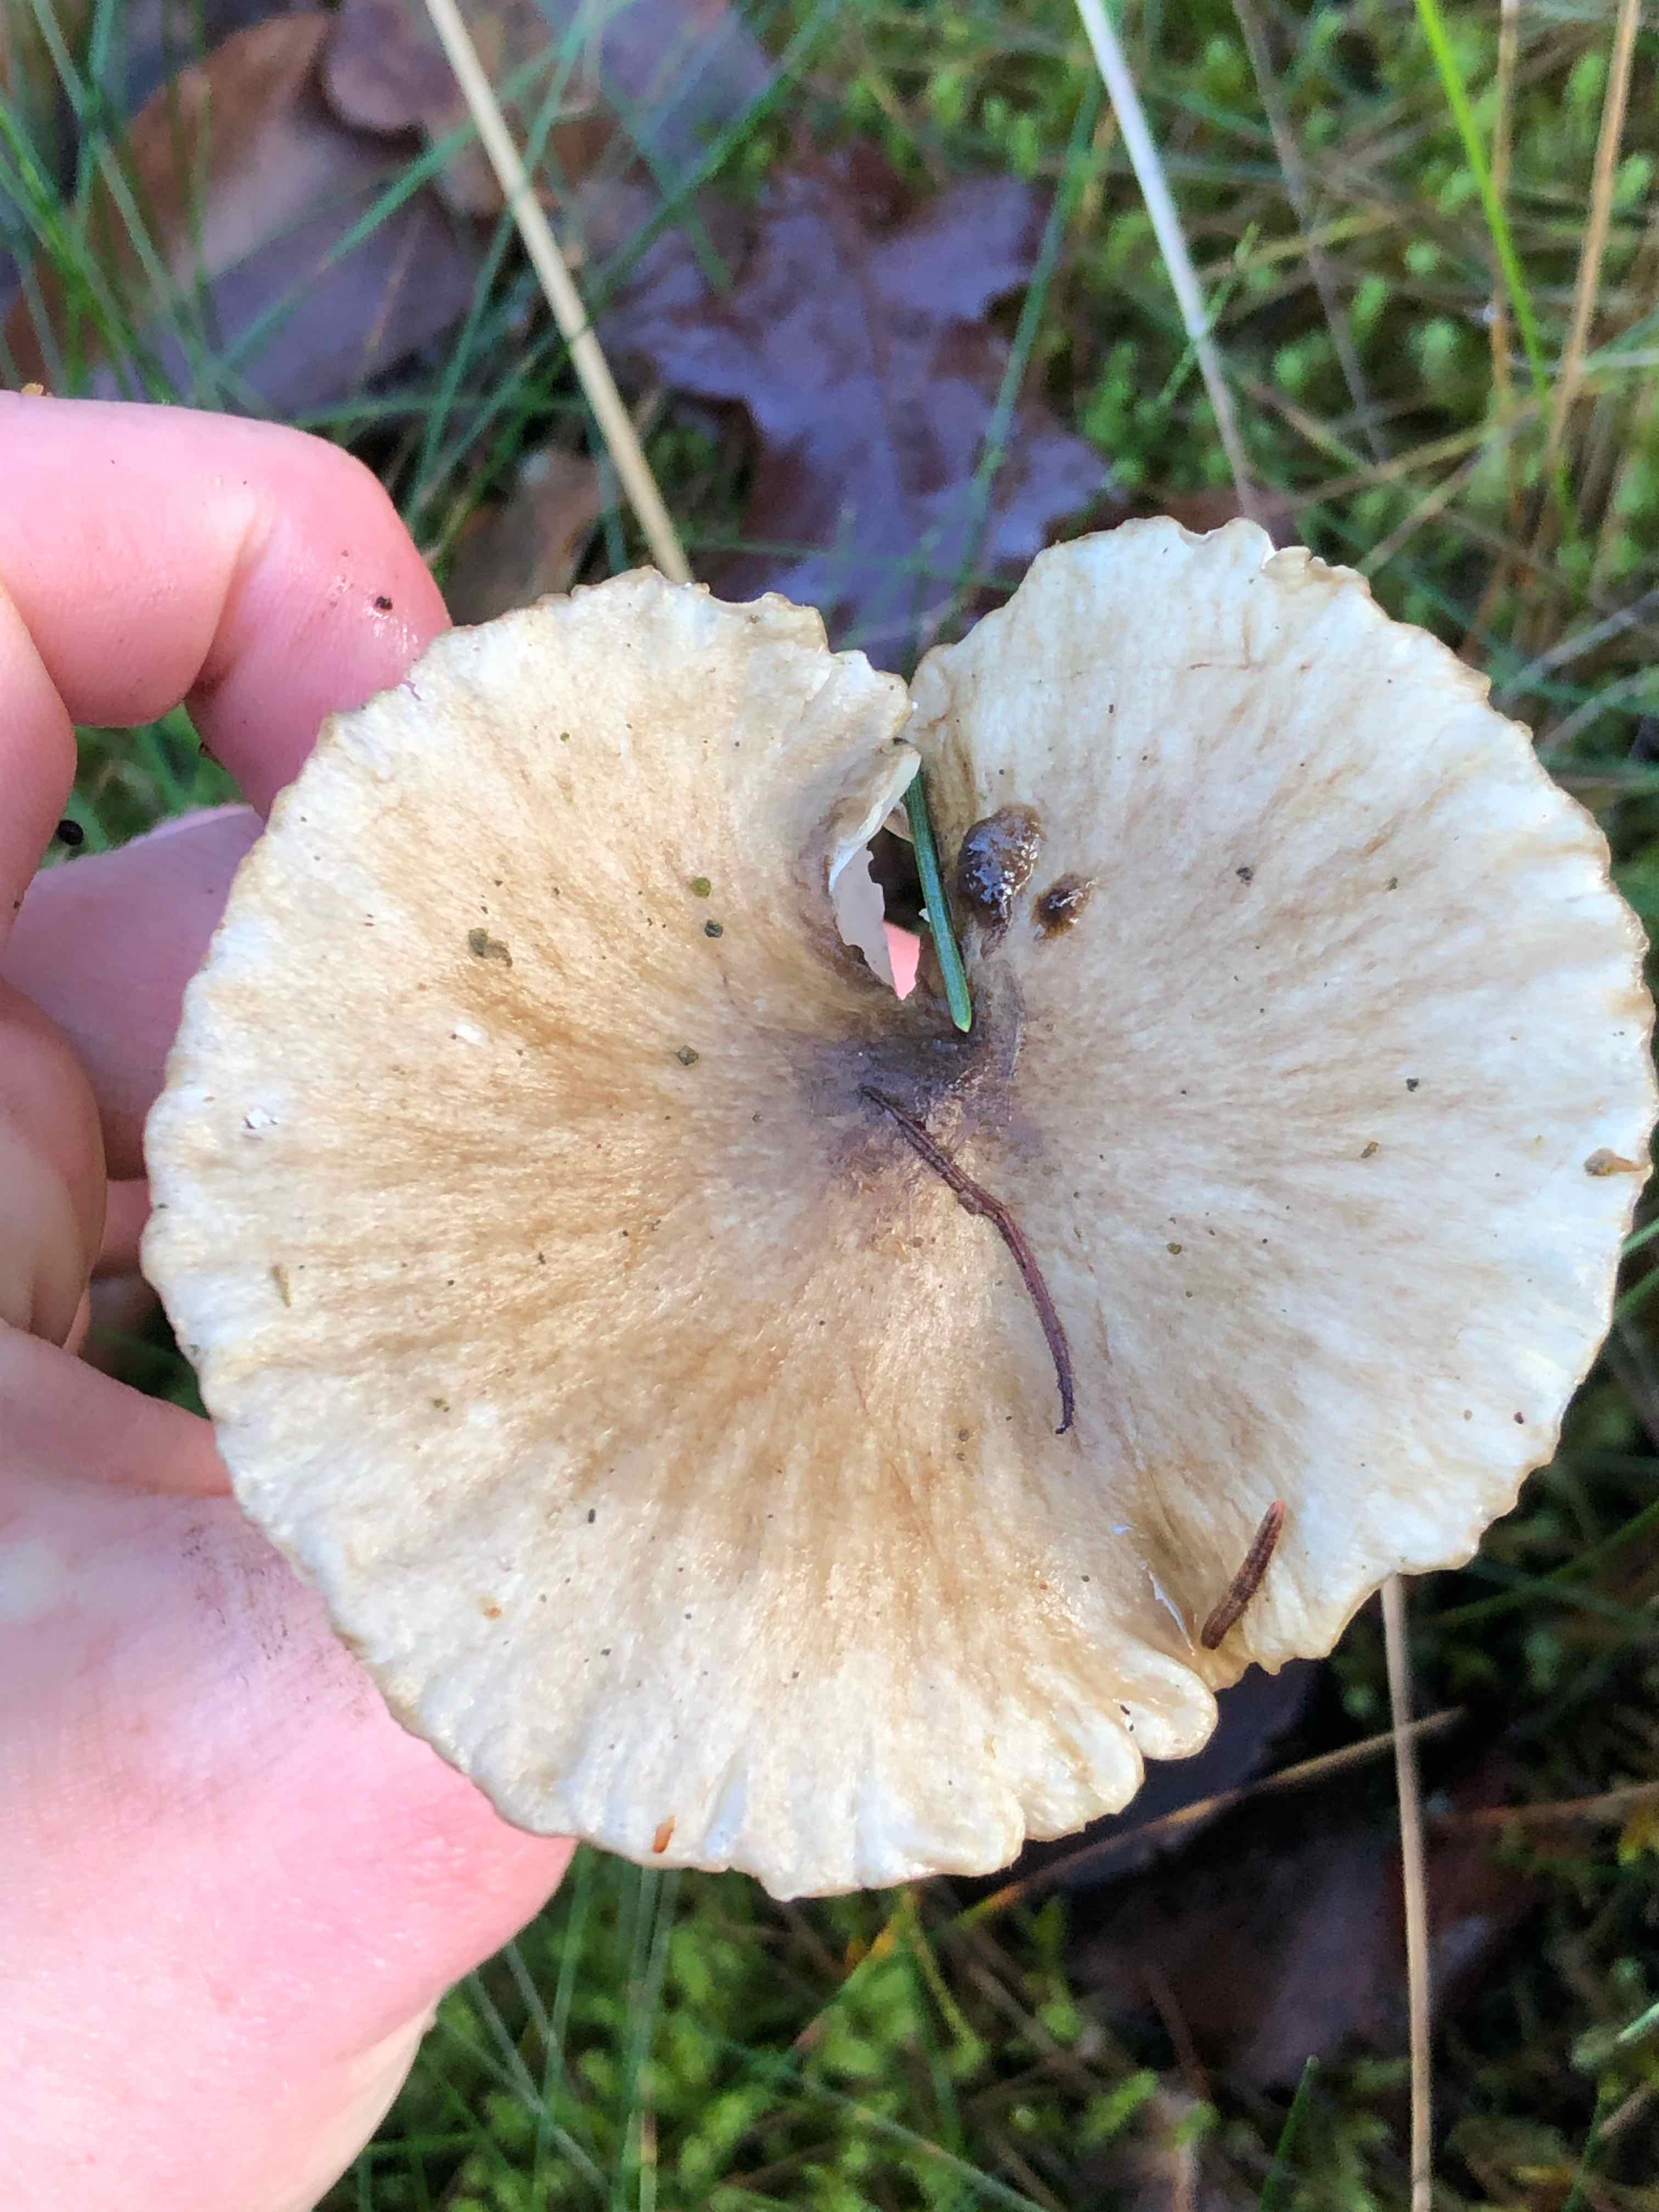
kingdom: Fungi
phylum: Basidiomycota
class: Agaricomycetes
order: Agaricales
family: Hygrophoraceae
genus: Hygrophorus
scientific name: Hygrophorus olivaceoalbus
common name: hvidbrun sneglehat
